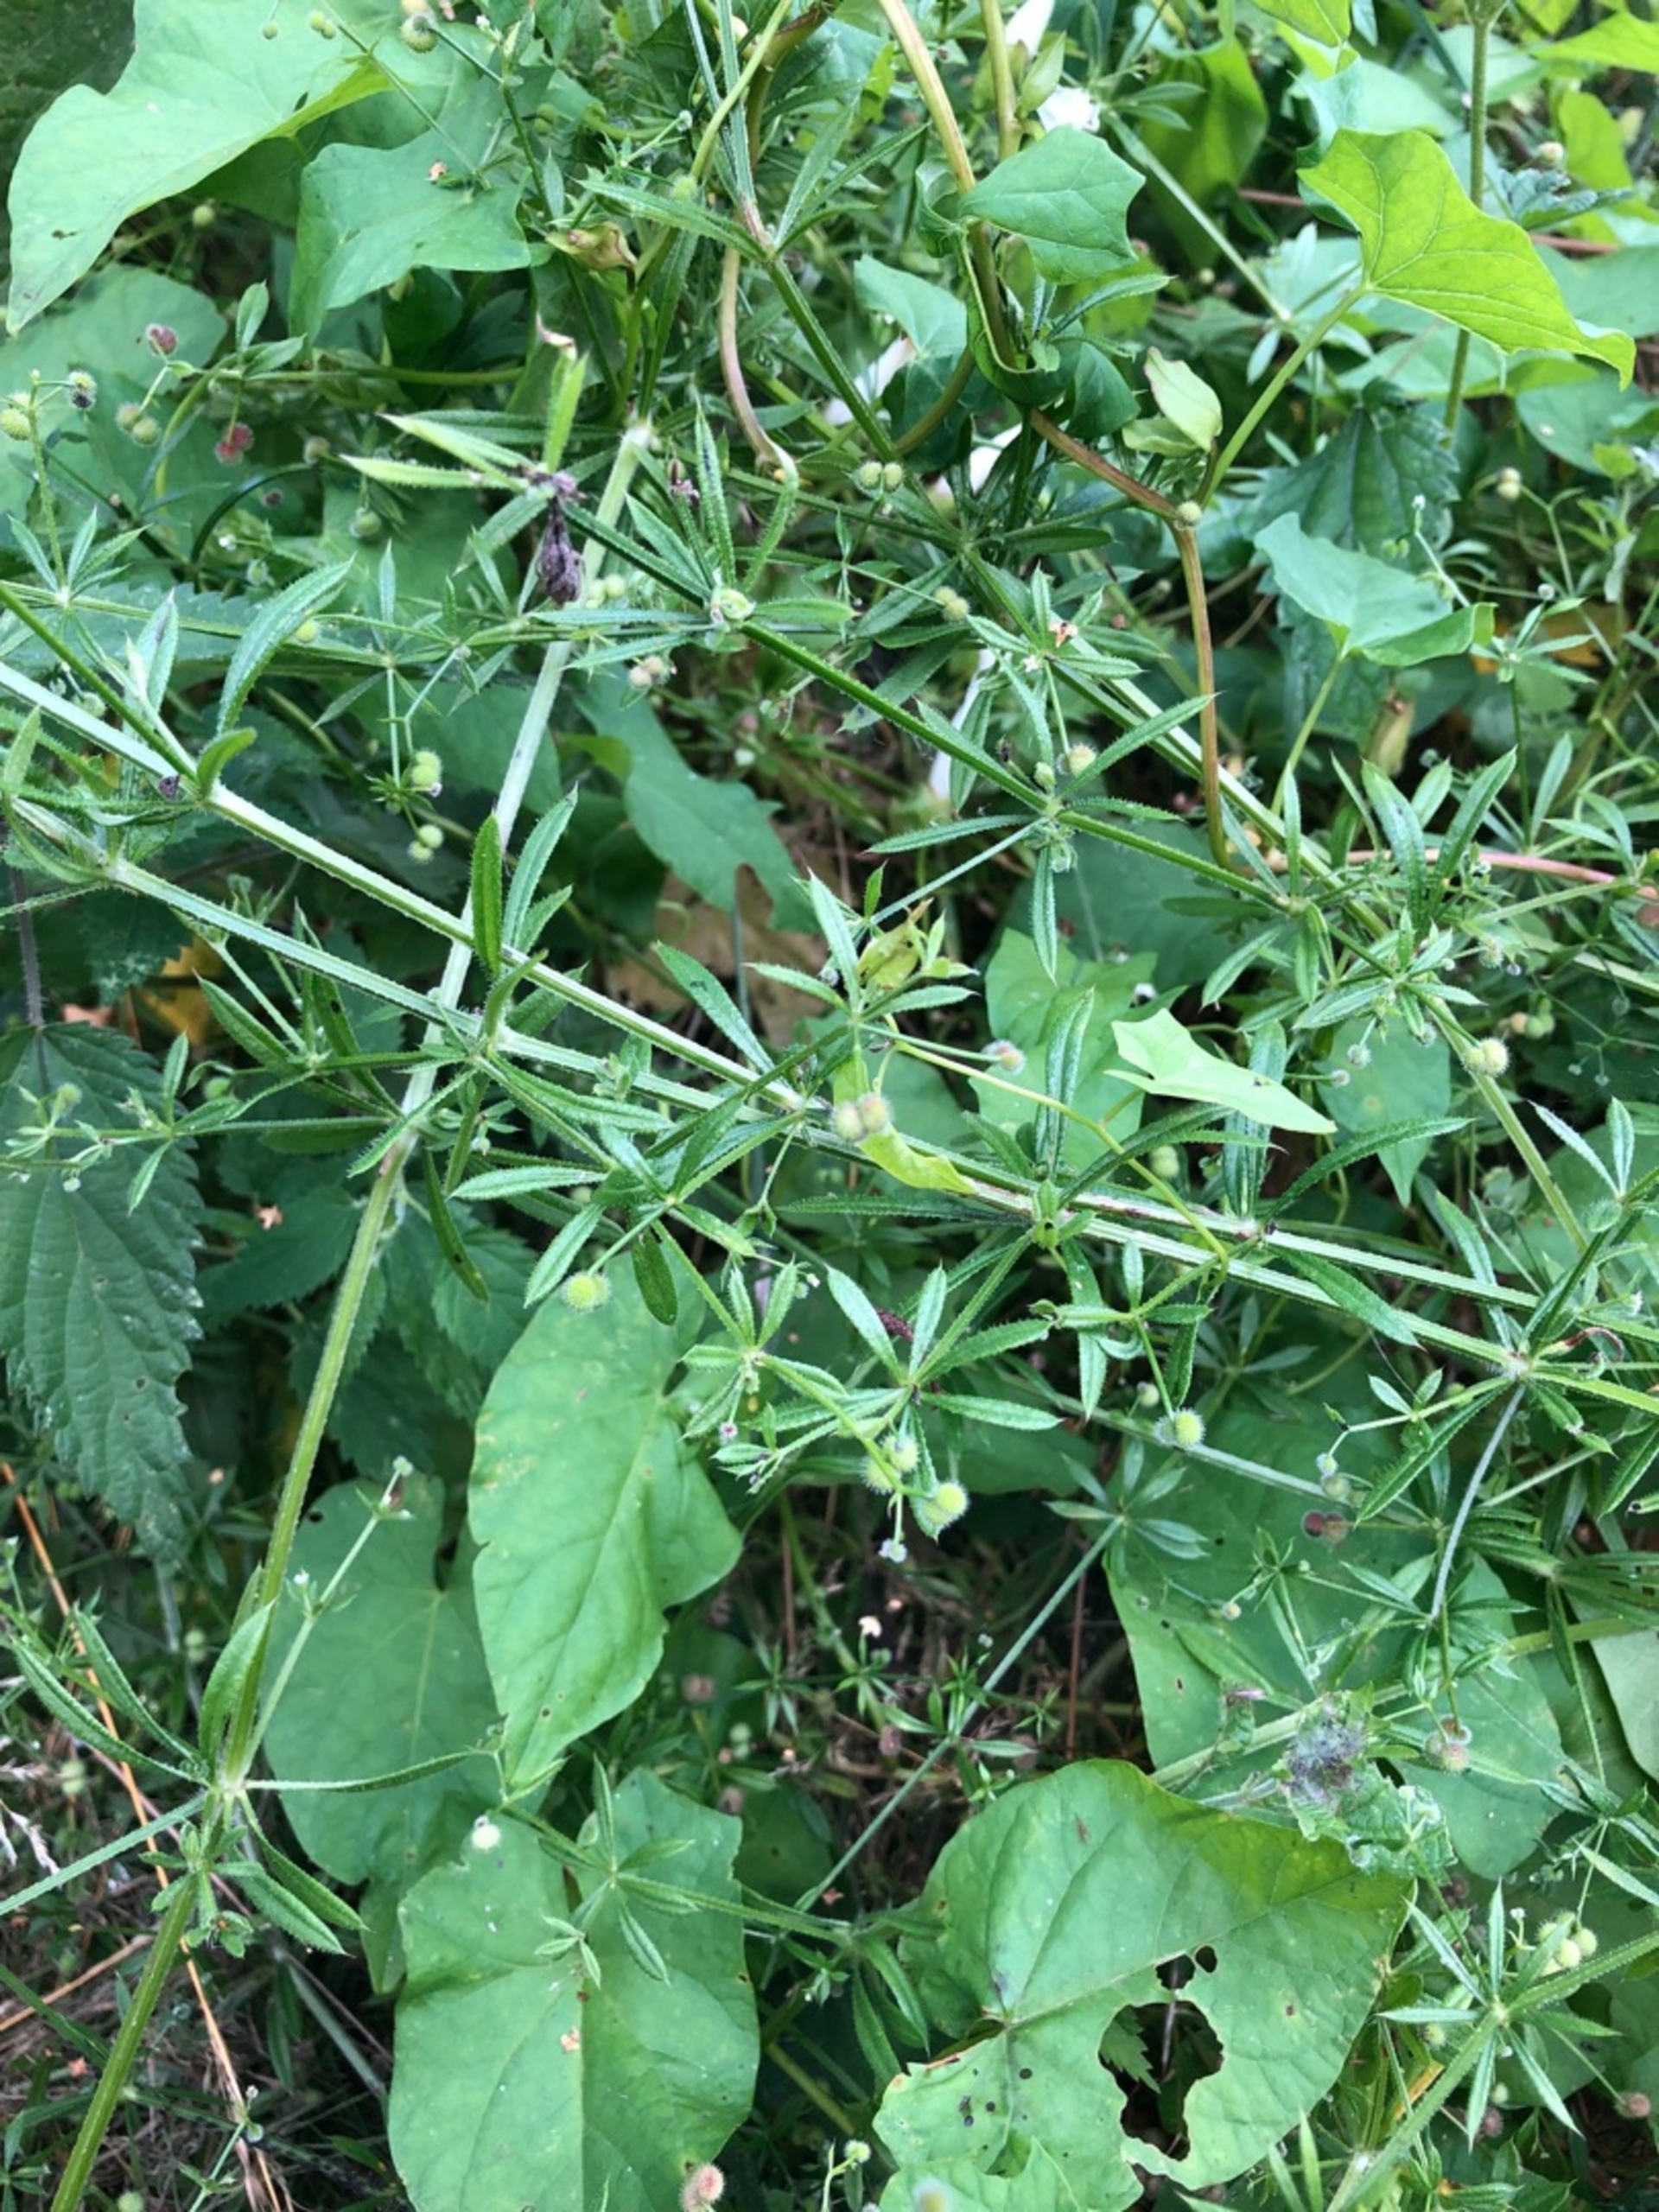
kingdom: Plantae
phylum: Tracheophyta
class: Magnoliopsida
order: Gentianales
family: Rubiaceae
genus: Galium
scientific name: Galium aparine
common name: Burre-snerre
